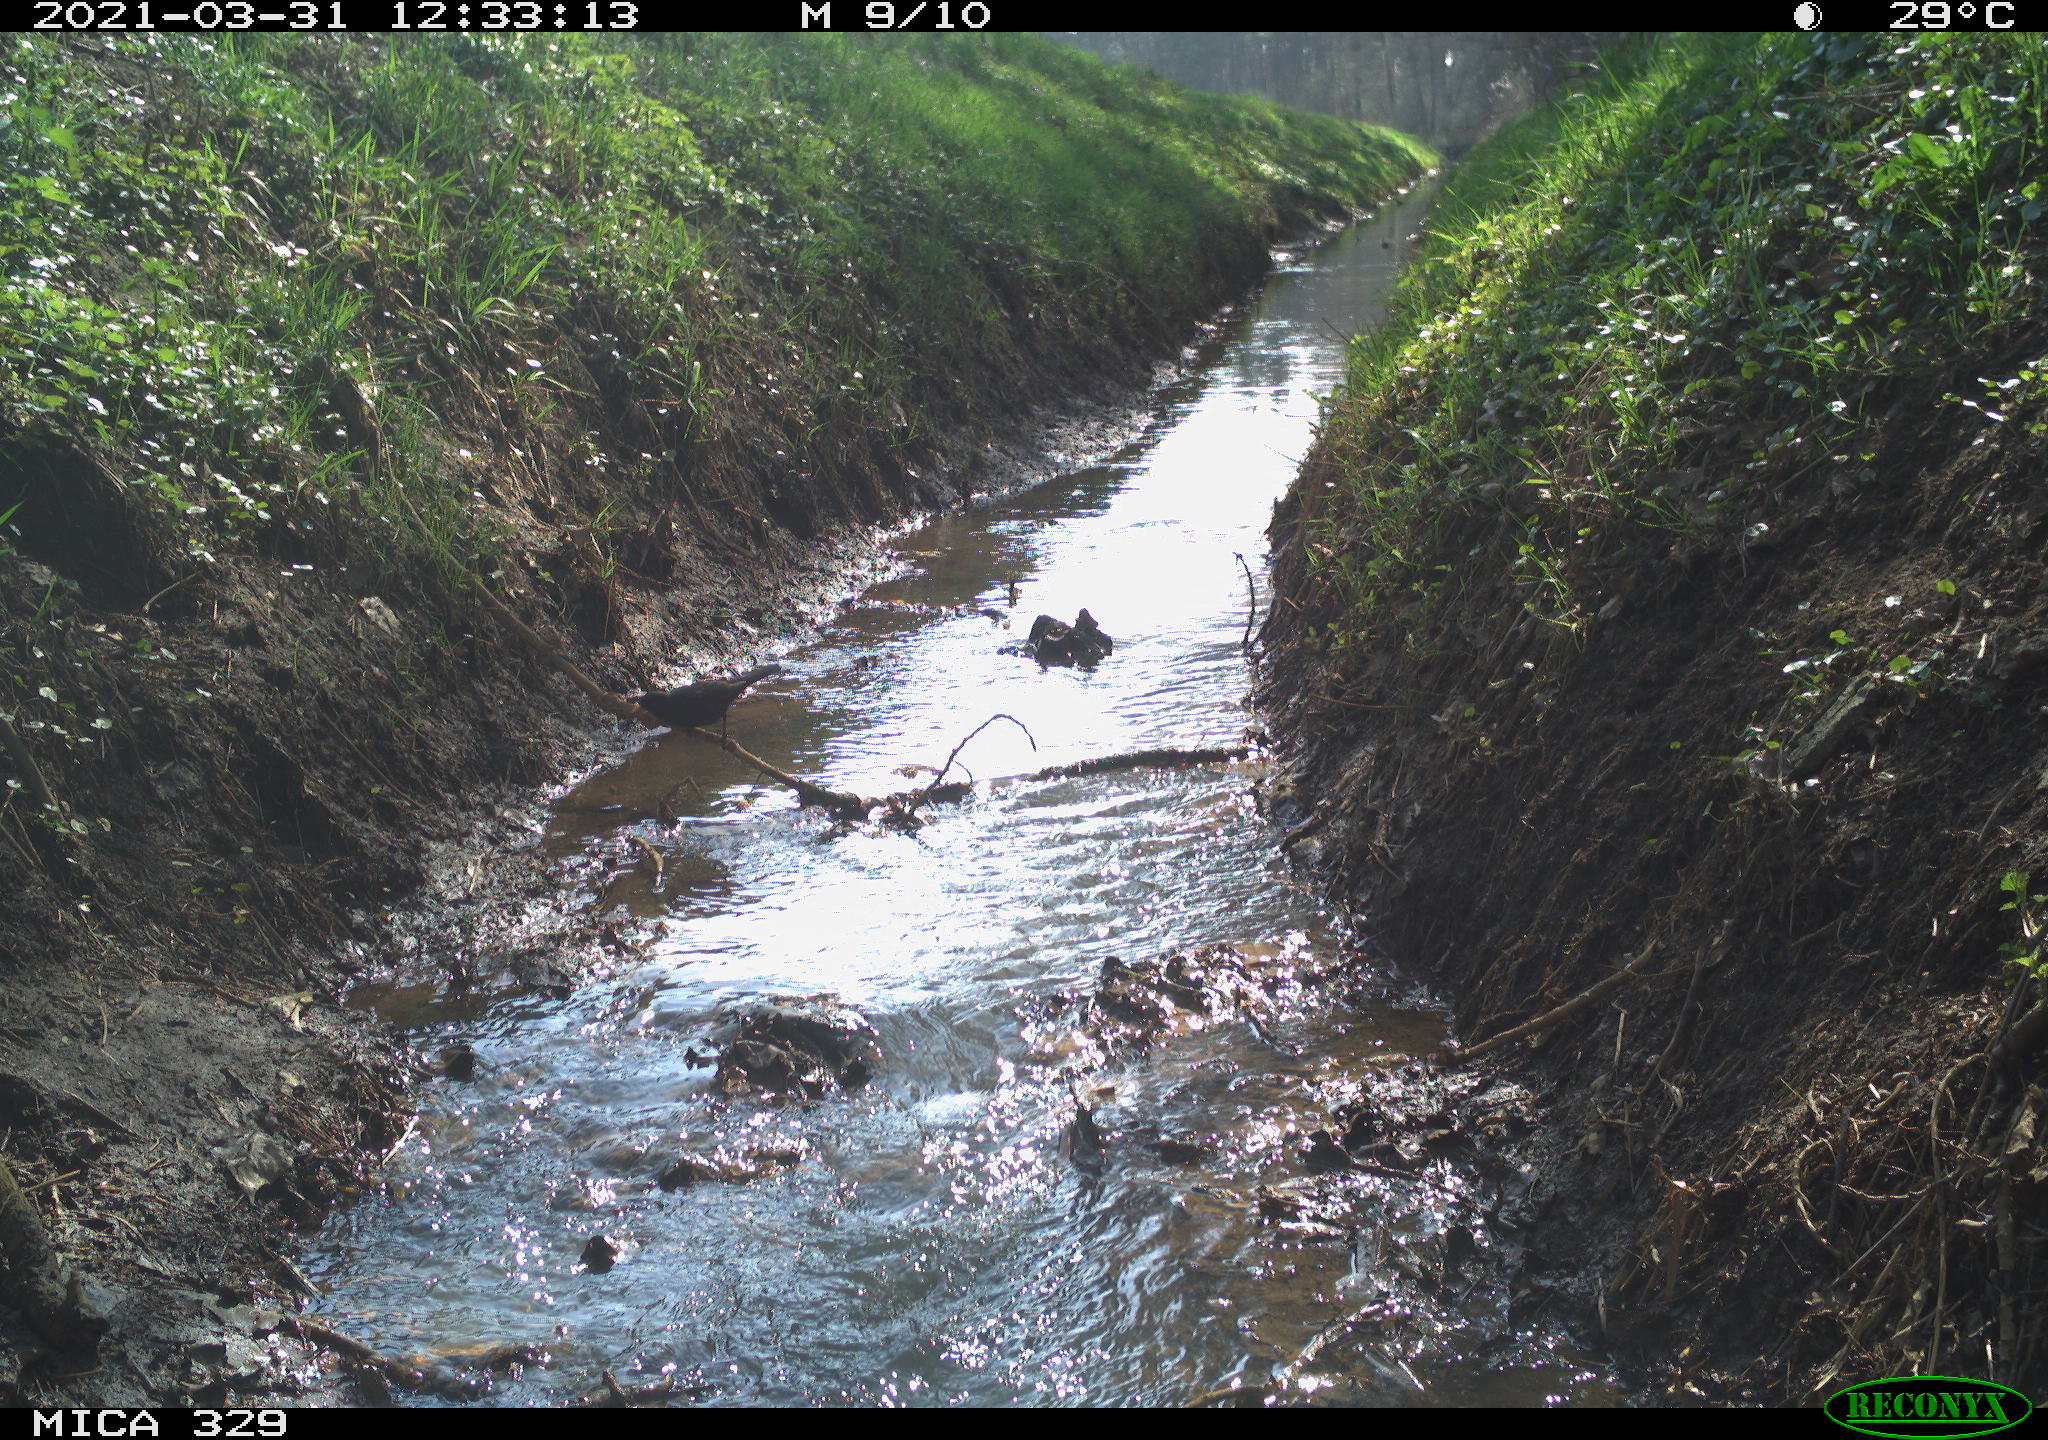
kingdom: Animalia
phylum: Chordata
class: Aves
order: Passeriformes
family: Turdidae
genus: Turdus
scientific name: Turdus merula
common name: Common blackbird
